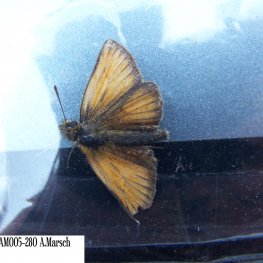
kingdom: Animalia
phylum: Arthropoda
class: Insecta
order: Lepidoptera
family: Hesperiidae
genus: Thymelicus
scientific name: Thymelicus lineola
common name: European Skipper
